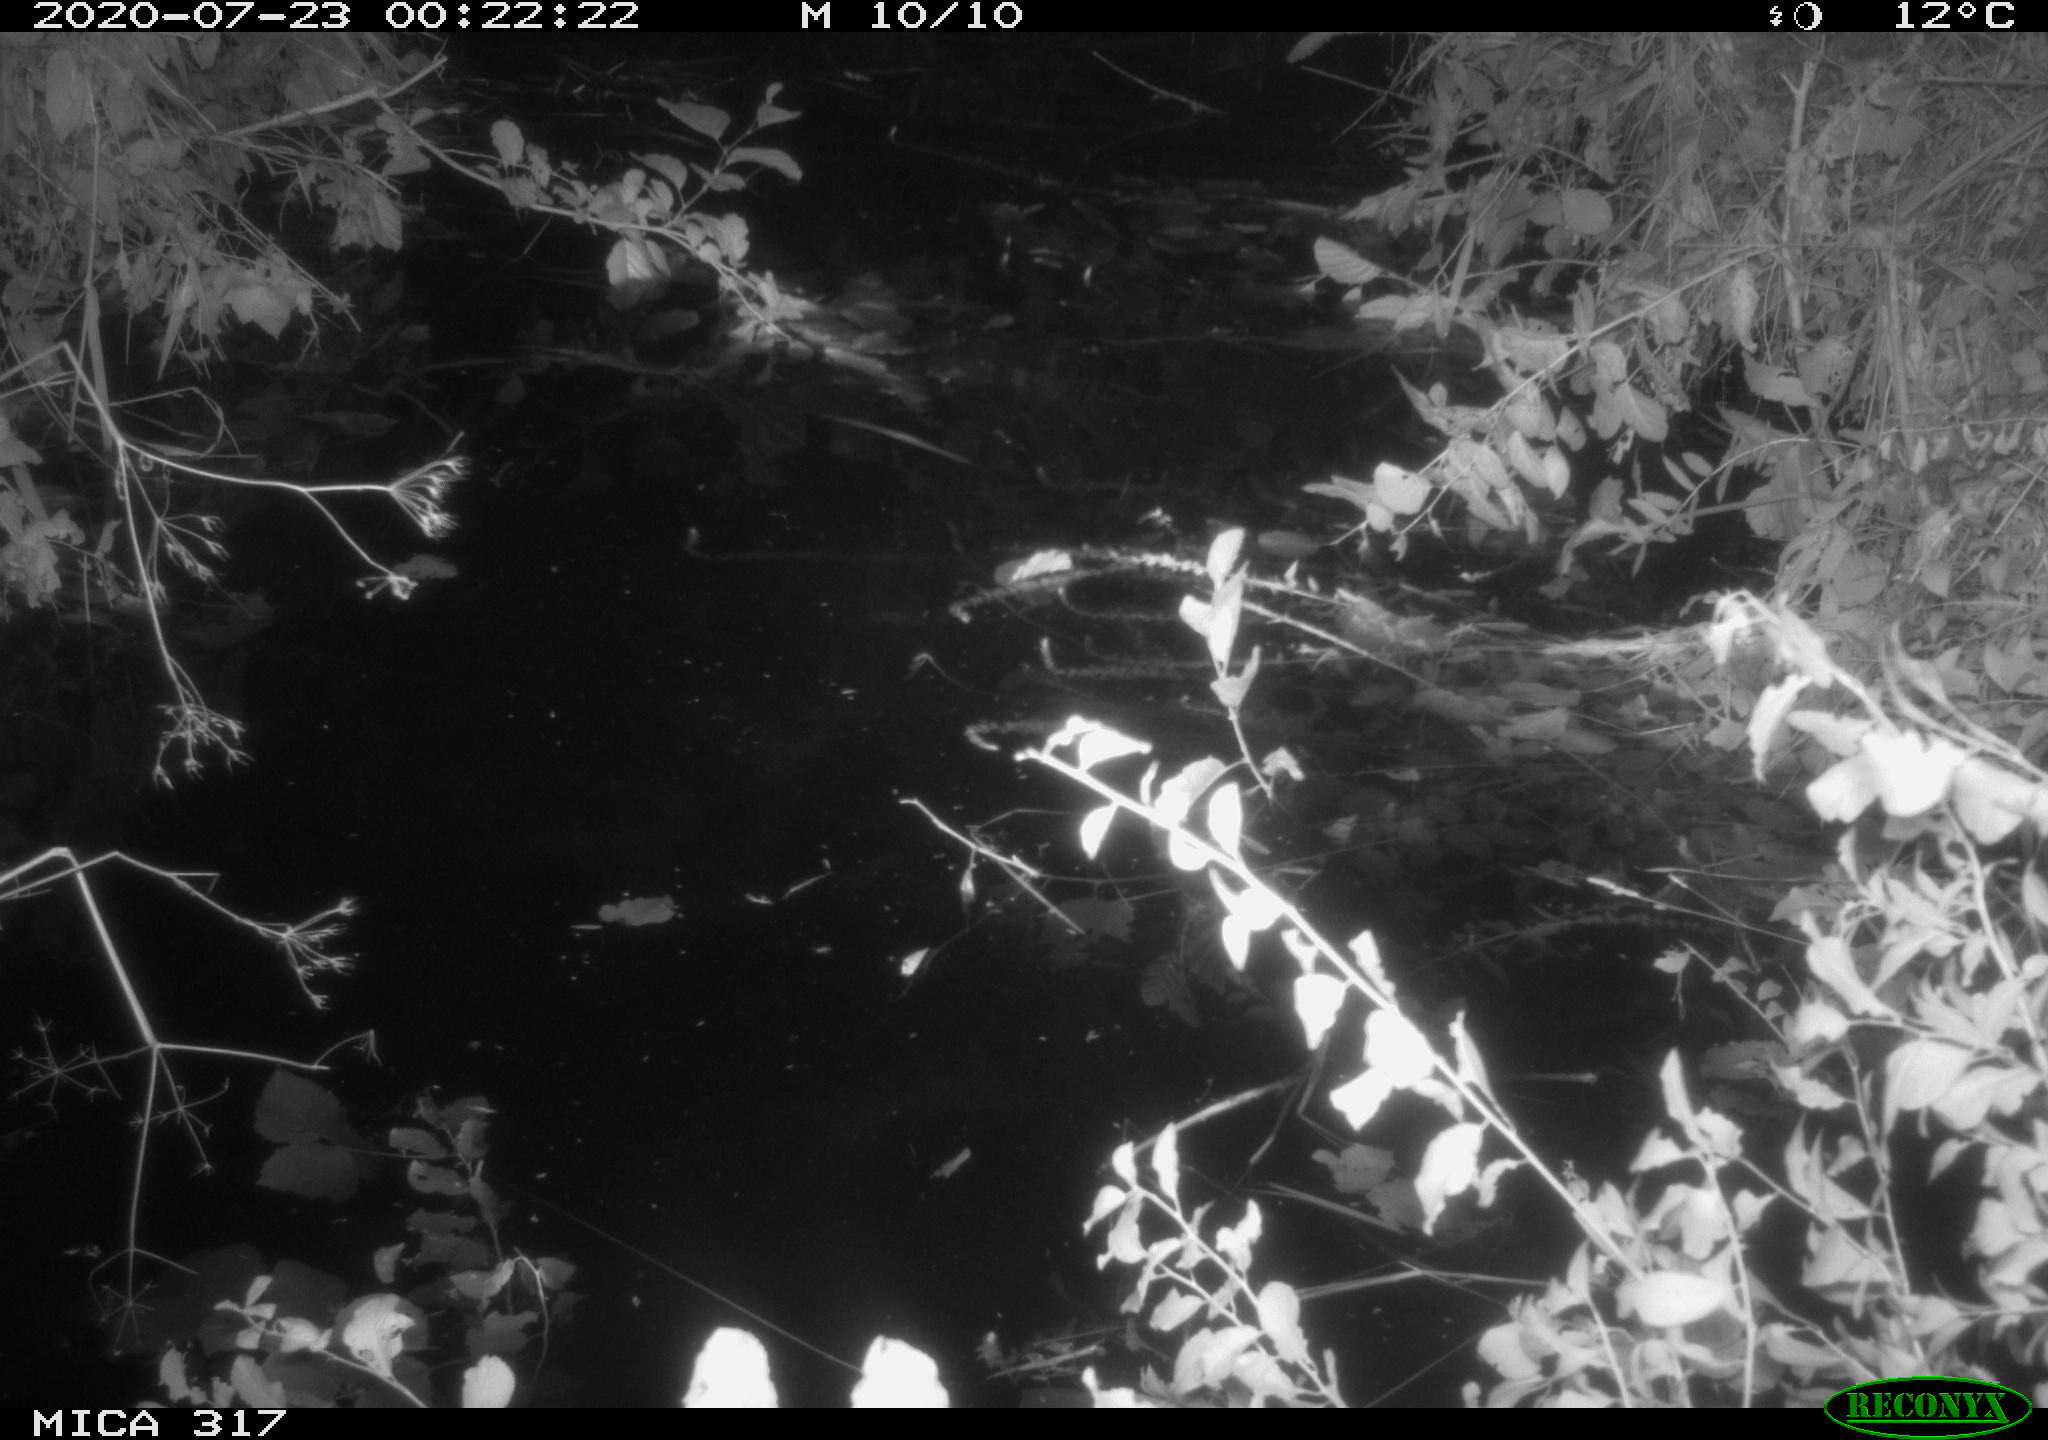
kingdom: Animalia
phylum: Chordata
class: Aves
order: Anseriformes
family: Anatidae
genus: Anas
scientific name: Anas platyrhynchos
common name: Mallard
